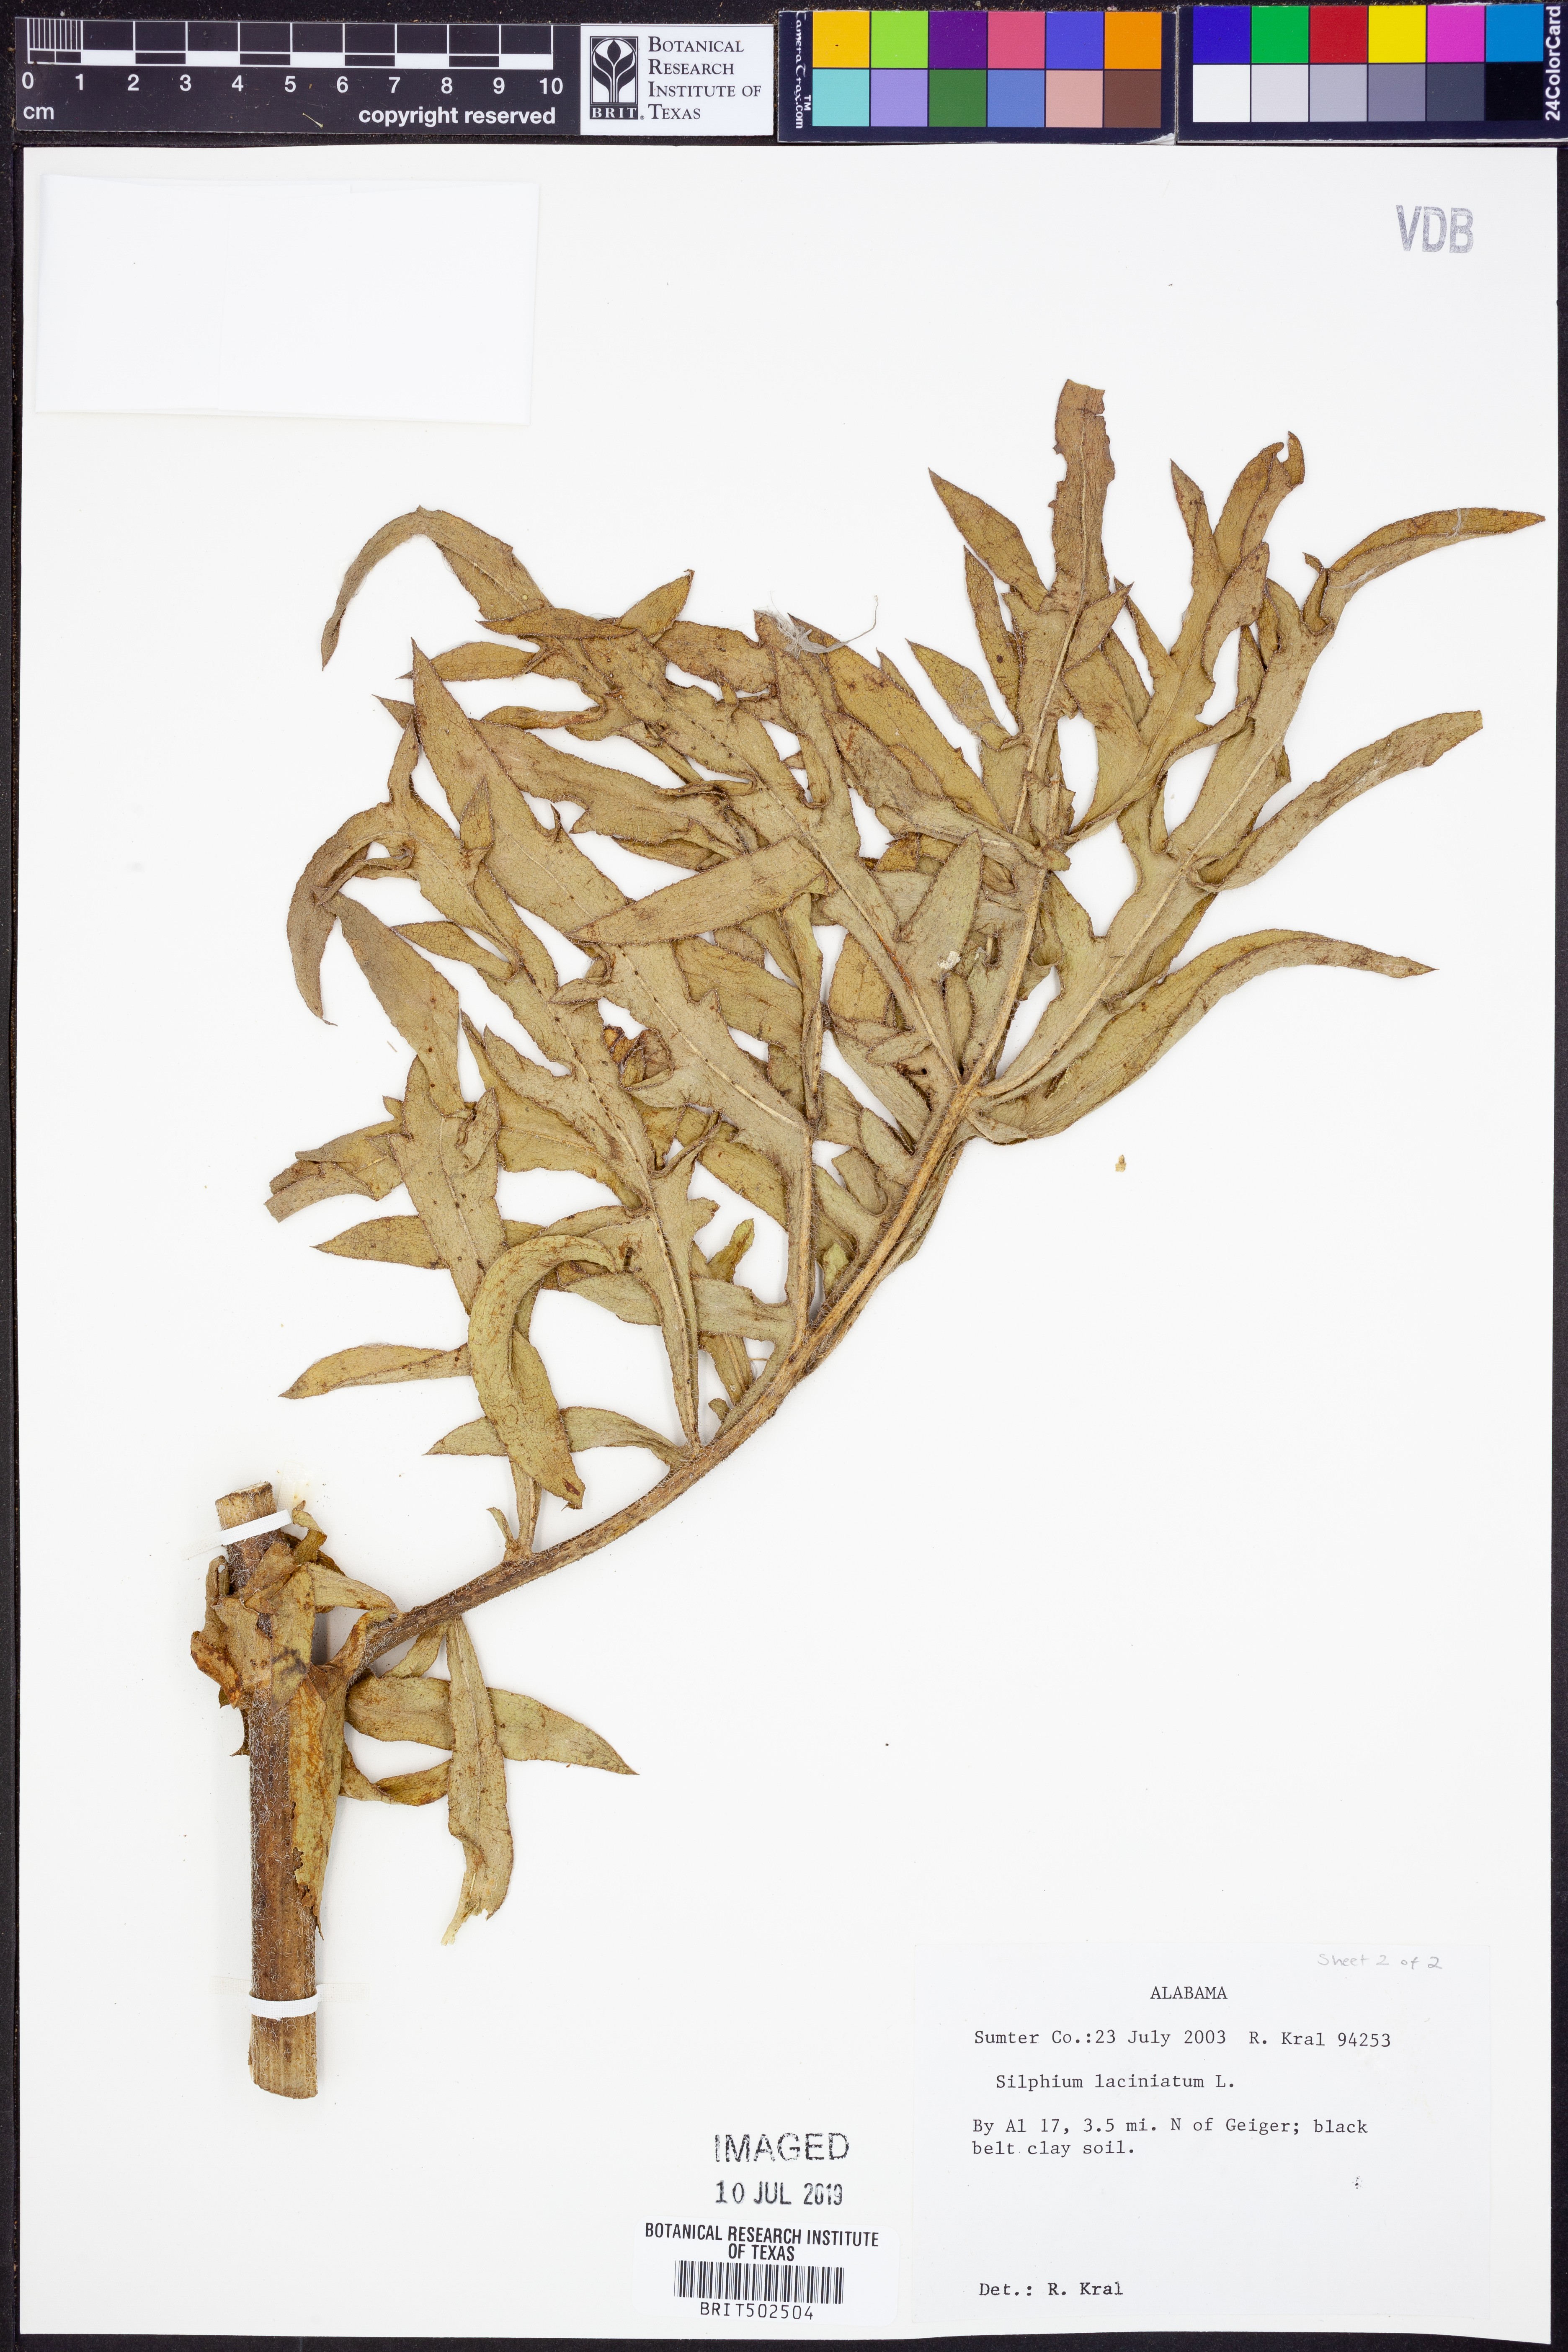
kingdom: Plantae
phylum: Tracheophyta
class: Magnoliopsida
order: Asterales
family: Asteraceae
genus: Silphium
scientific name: Silphium laciniatum
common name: Polarplant
